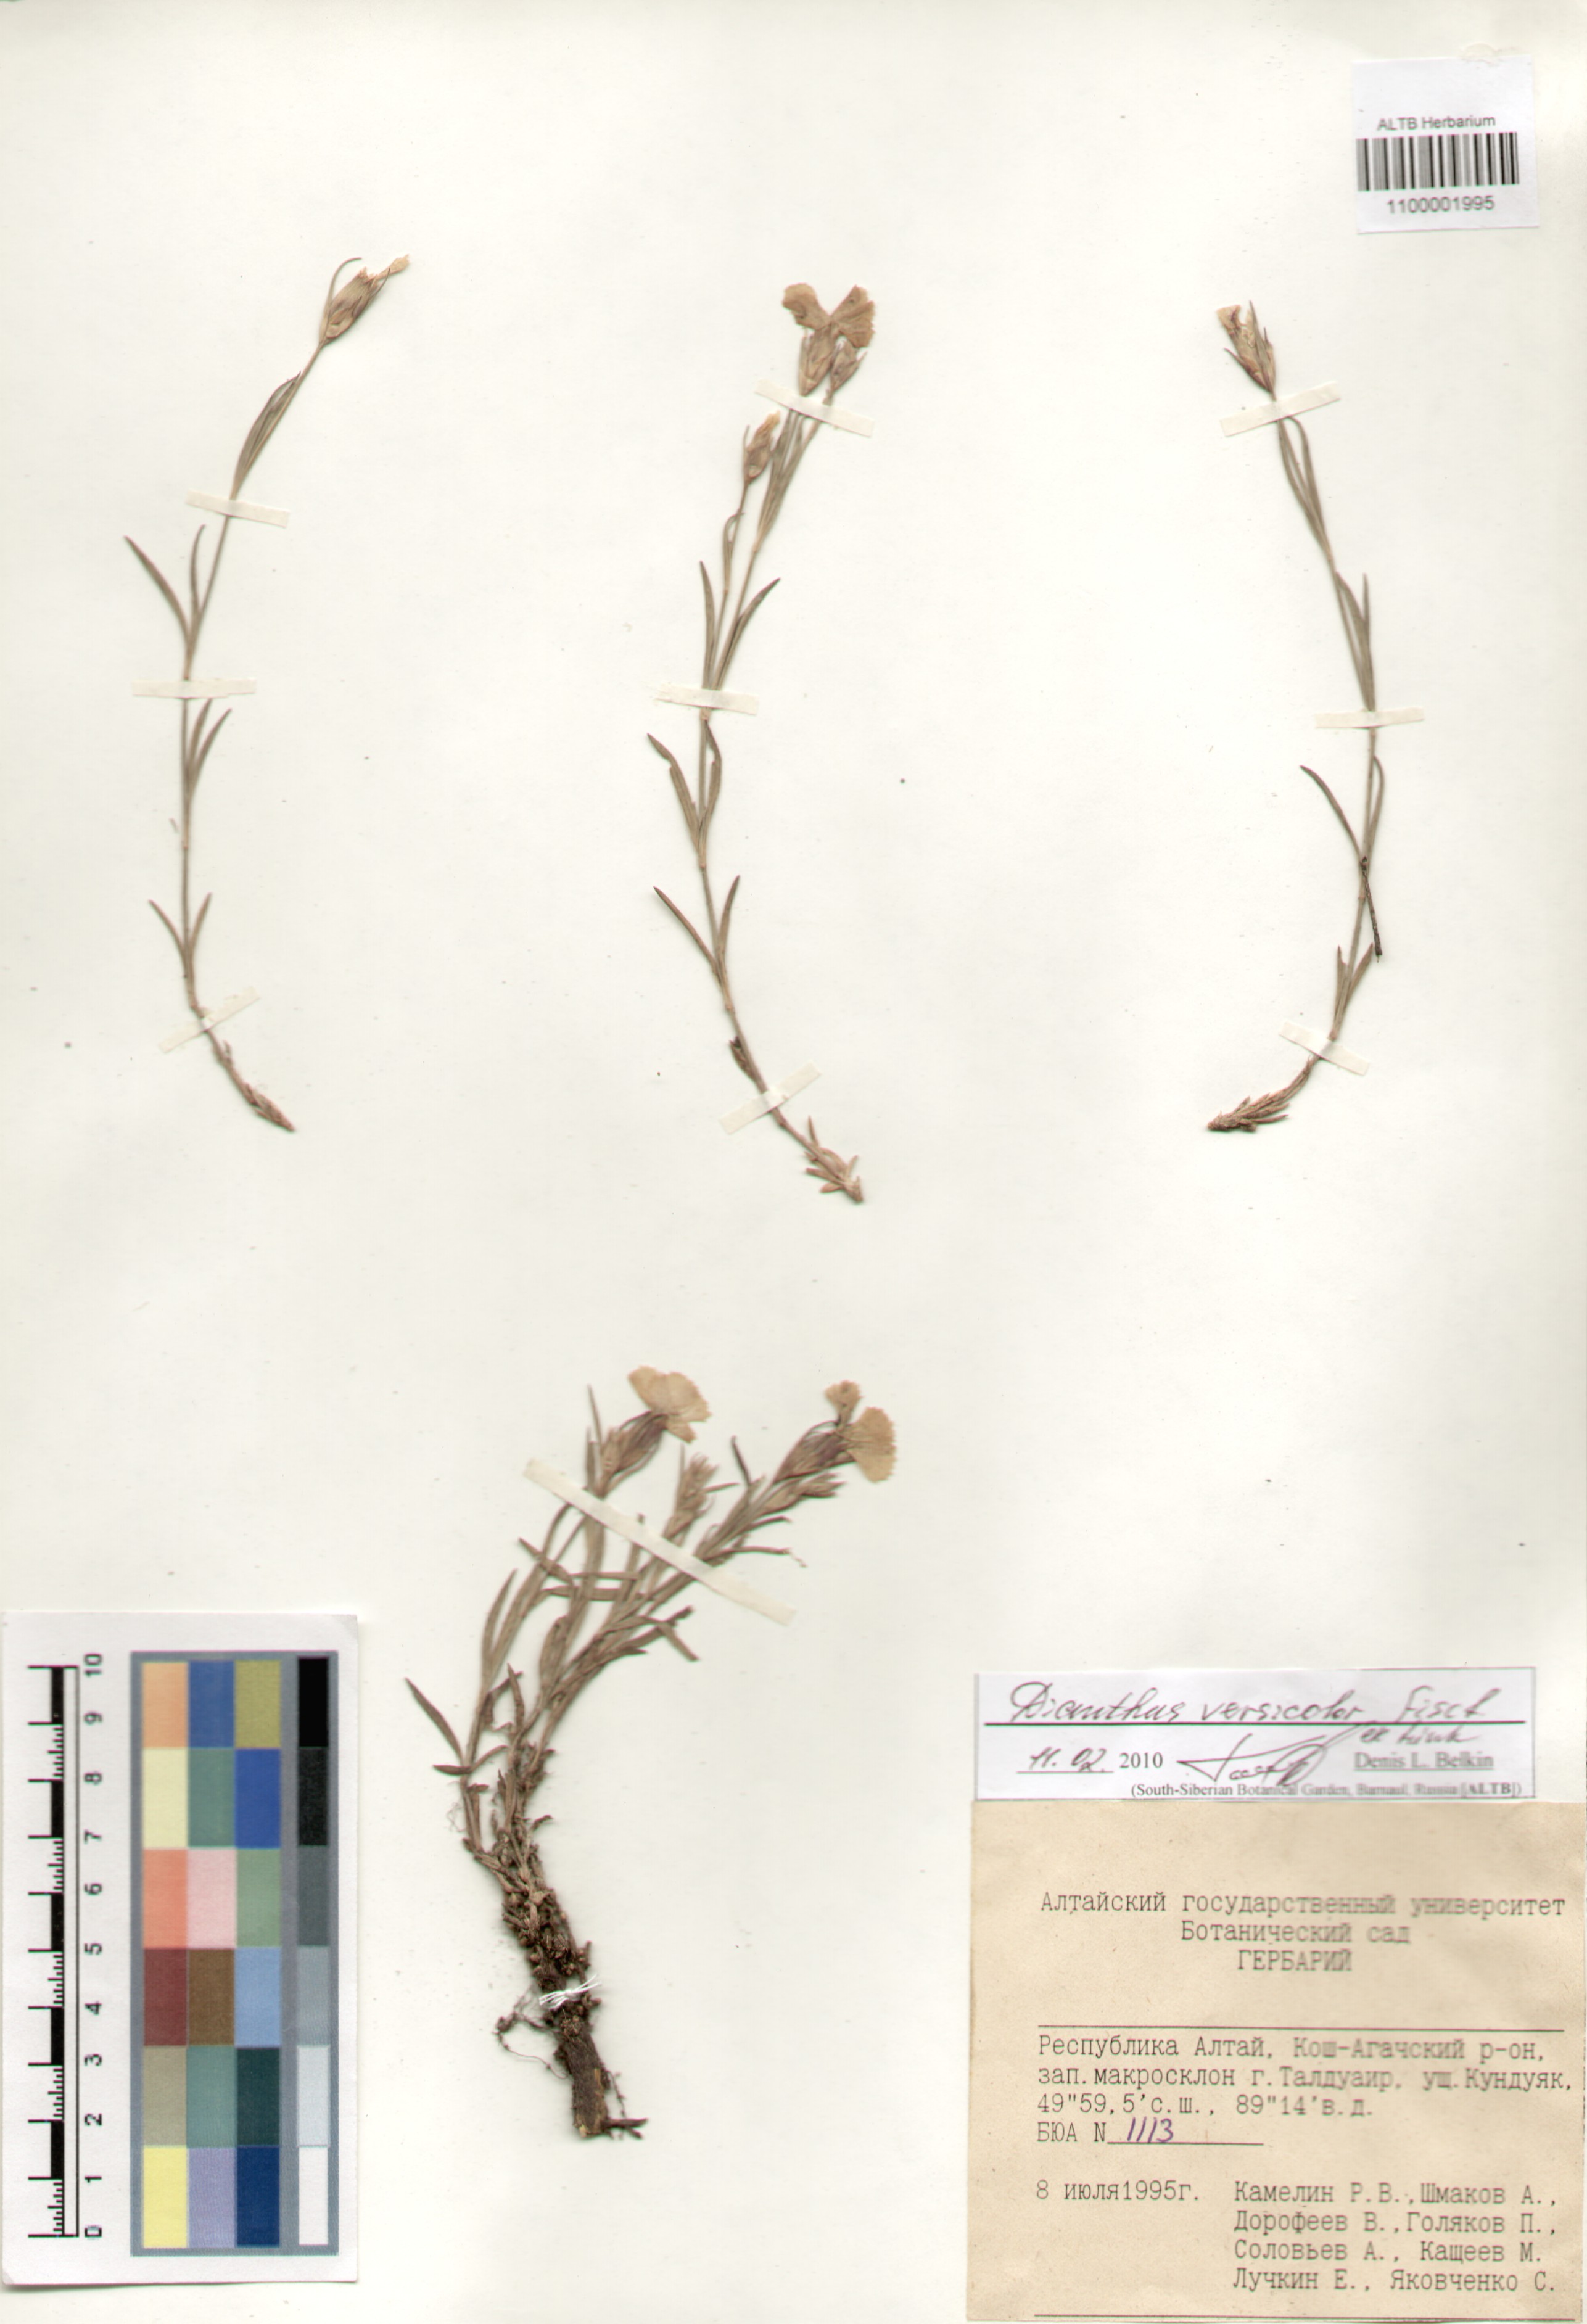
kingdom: Plantae
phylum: Tracheophyta
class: Magnoliopsida
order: Caryophyllales
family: Caryophyllaceae
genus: Dianthus
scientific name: Dianthus chinensis
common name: Rainbow pink
